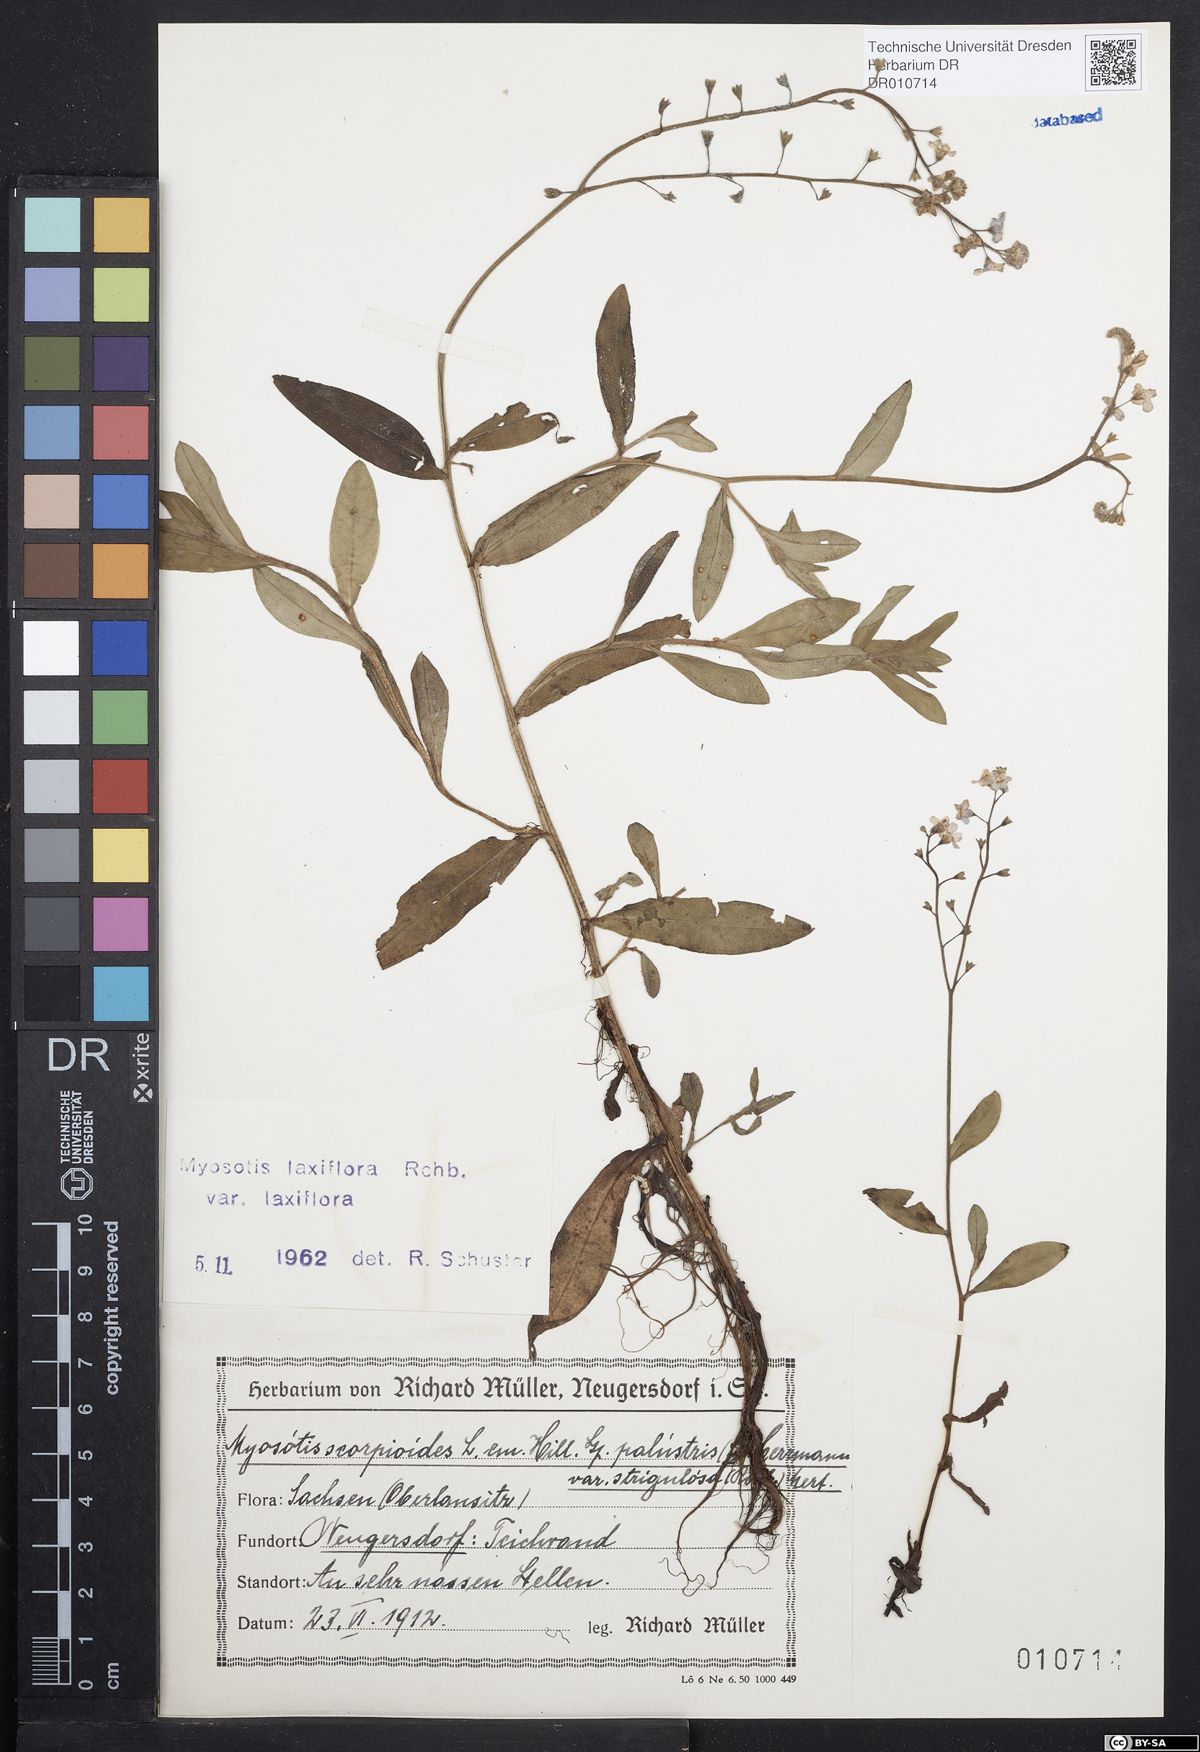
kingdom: Plantae
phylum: Tracheophyta
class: Magnoliopsida
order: Boraginales
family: Boraginaceae
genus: Myosotis
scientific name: Myosotis scorpioides
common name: Water forget-me-not
